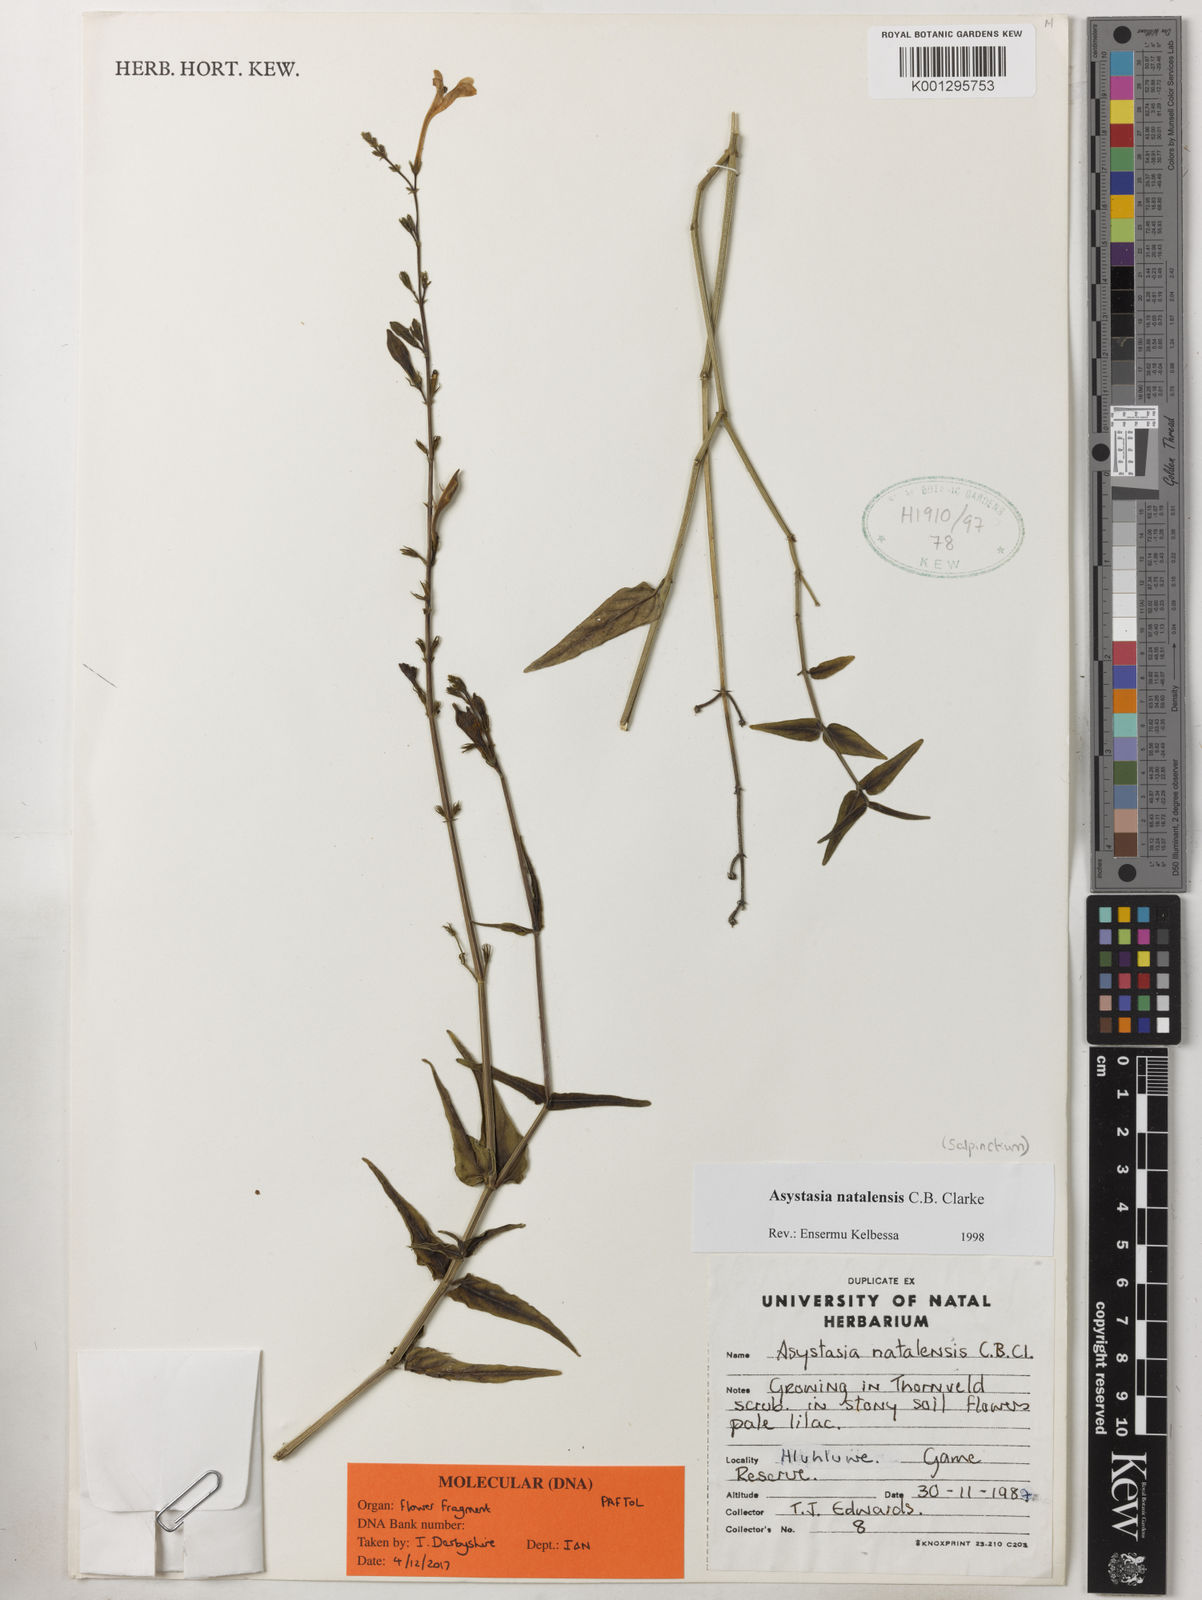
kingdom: Plantae
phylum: Tracheophyta
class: Magnoliopsida
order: Lamiales
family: Acanthaceae
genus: Asystasia
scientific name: Asystasia natalensis
